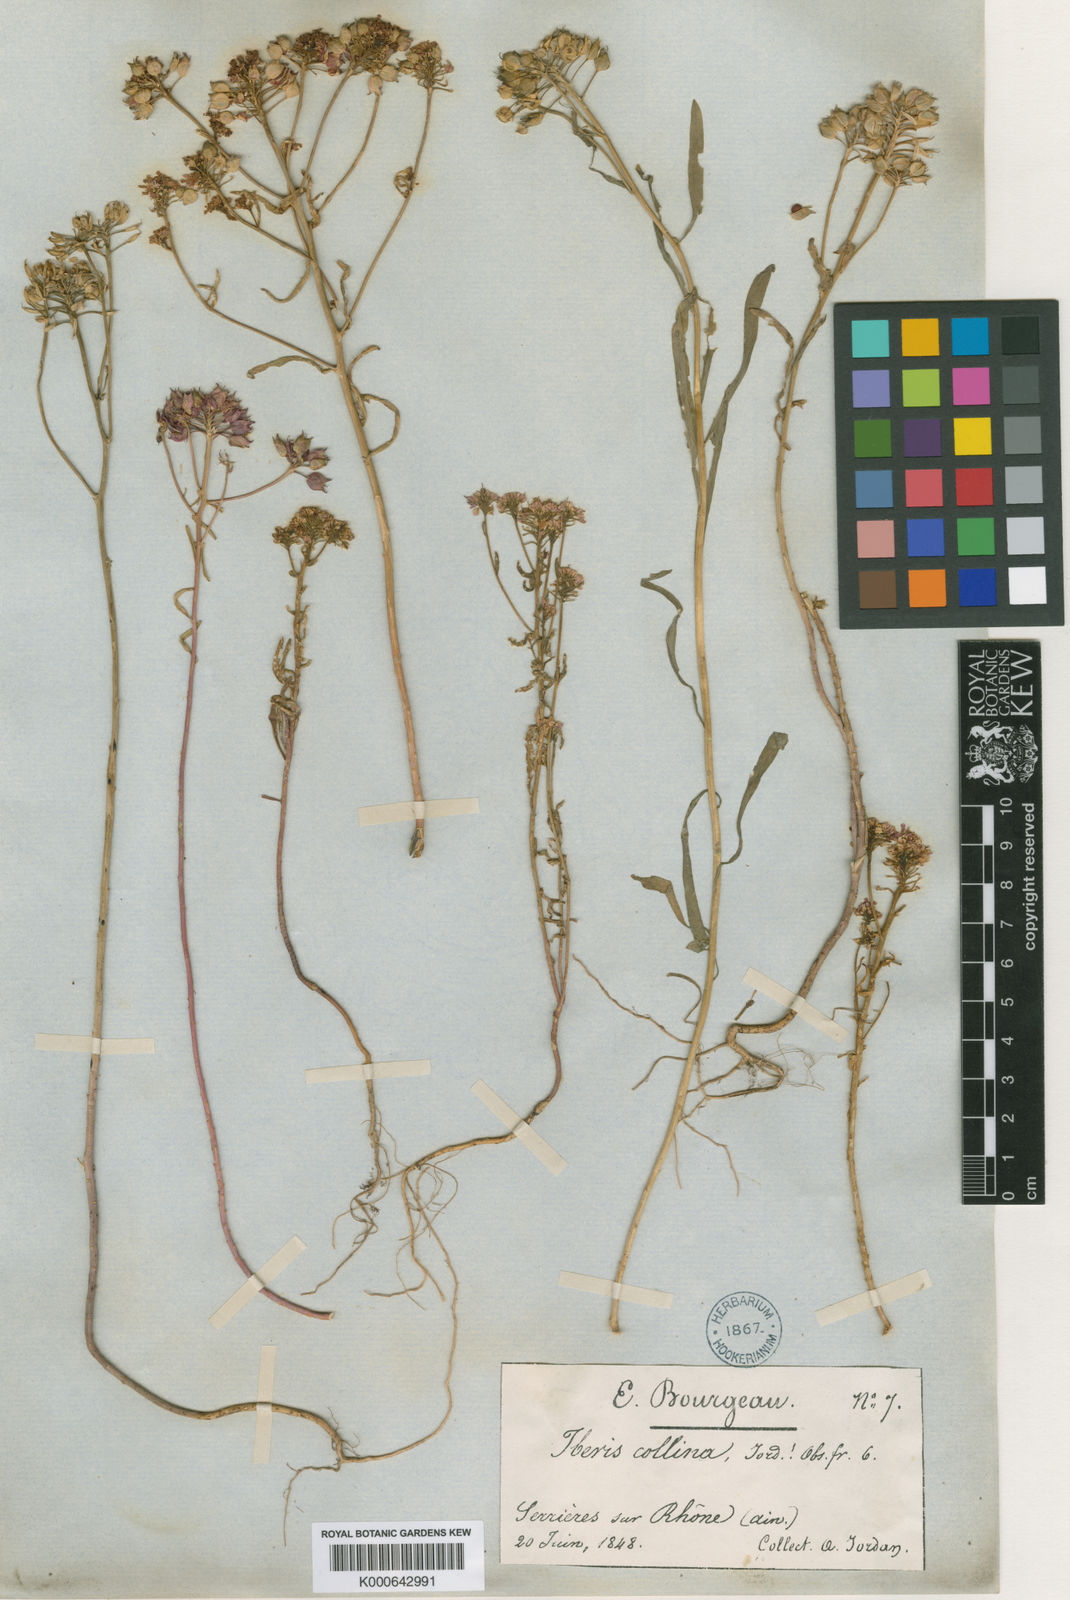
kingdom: Plantae
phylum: Tracheophyta
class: Magnoliopsida
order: Brassicales
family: Brassicaceae
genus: Iberis
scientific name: Iberis linifolia
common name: Candytuft
